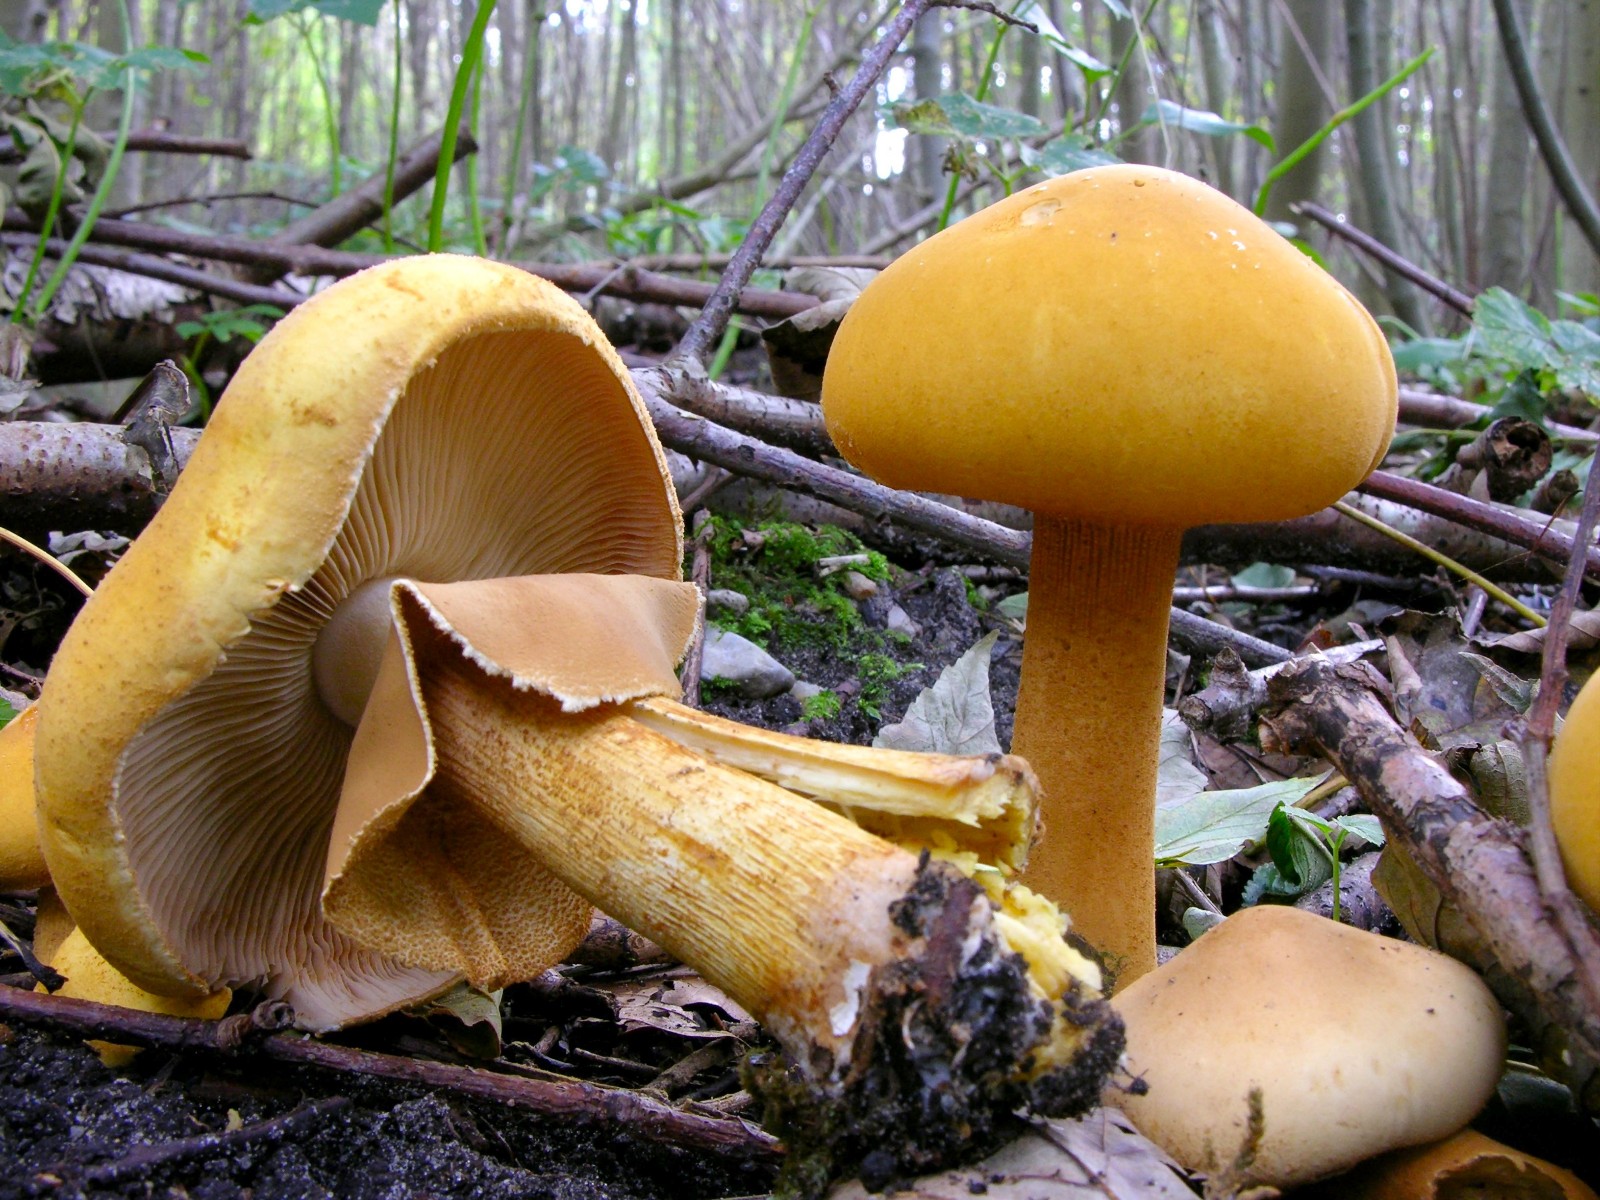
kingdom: Fungi
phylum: Basidiomycota
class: Agaricomycetes
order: Agaricales
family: Tricholomataceae
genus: Phaeolepiota
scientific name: Phaeolepiota aurea
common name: gyldenhat
